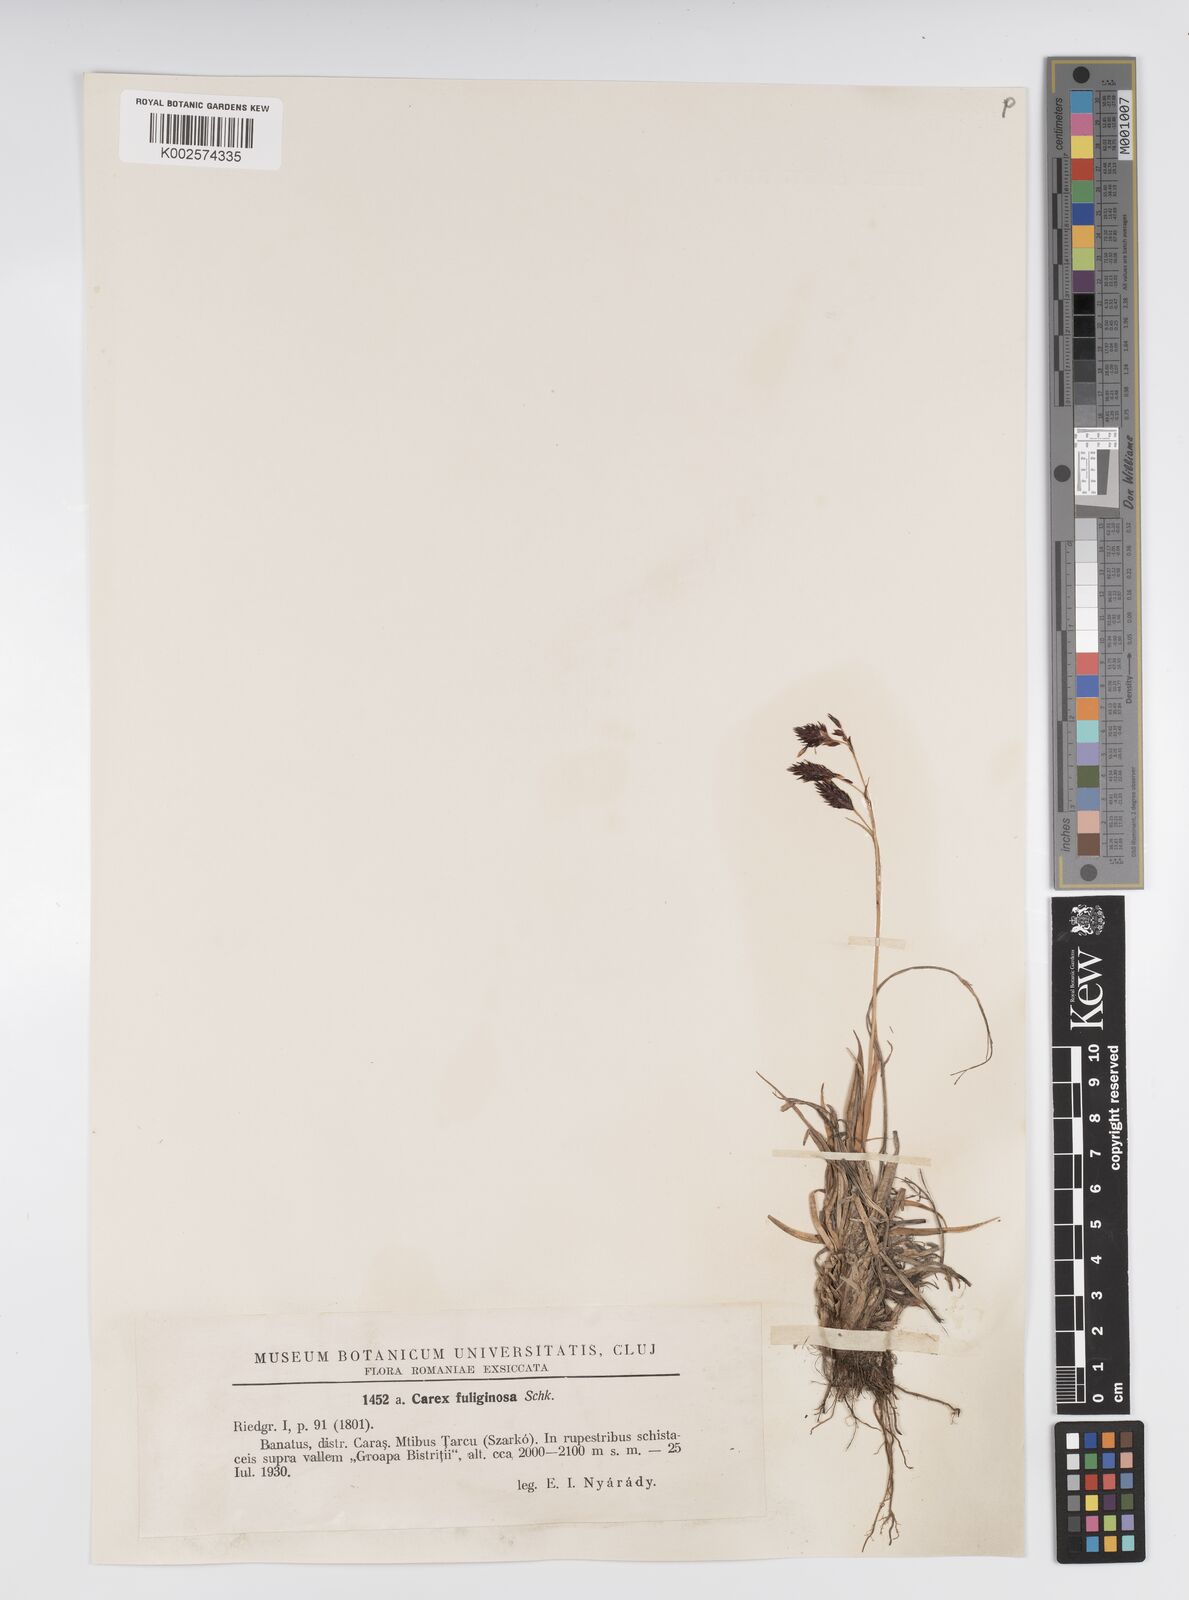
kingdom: Plantae
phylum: Tracheophyta
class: Liliopsida
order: Poales
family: Cyperaceae
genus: Carex
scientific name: Carex fuliginosa
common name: Few-flowered sedge
